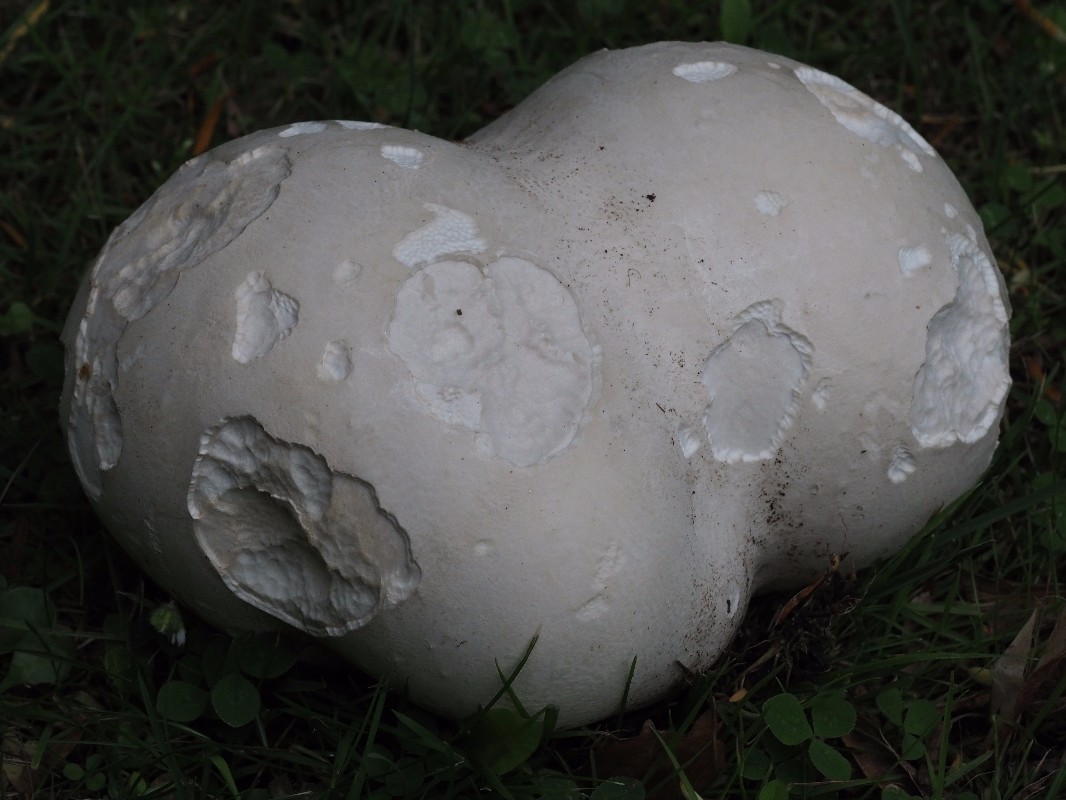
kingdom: Fungi
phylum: Basidiomycota
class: Agaricomycetes
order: Agaricales
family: Lycoperdaceae
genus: Calvatia
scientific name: Calvatia gigantea
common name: kæmpestøvbold
